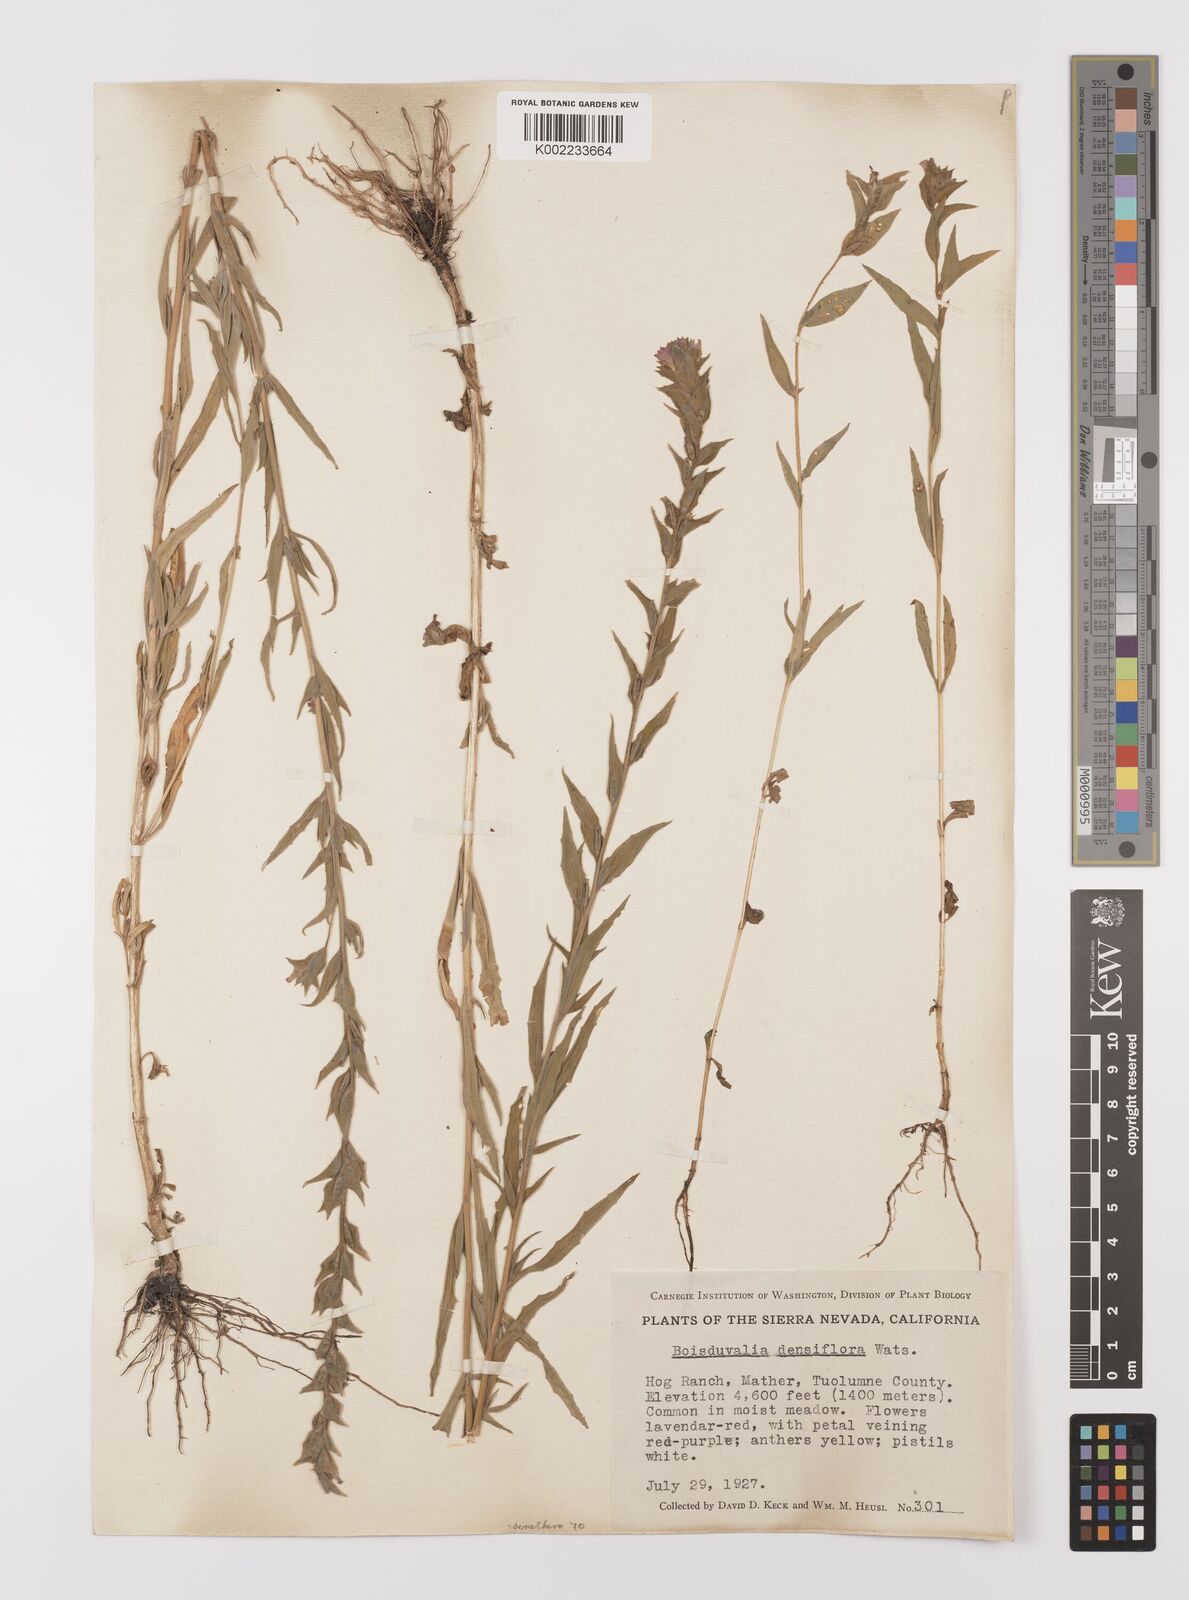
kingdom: Plantae
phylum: Tracheophyta
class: Magnoliopsida
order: Myrtales
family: Onagraceae
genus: Epilobium
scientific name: Epilobium densiflorum
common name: Dense spike-primrose
